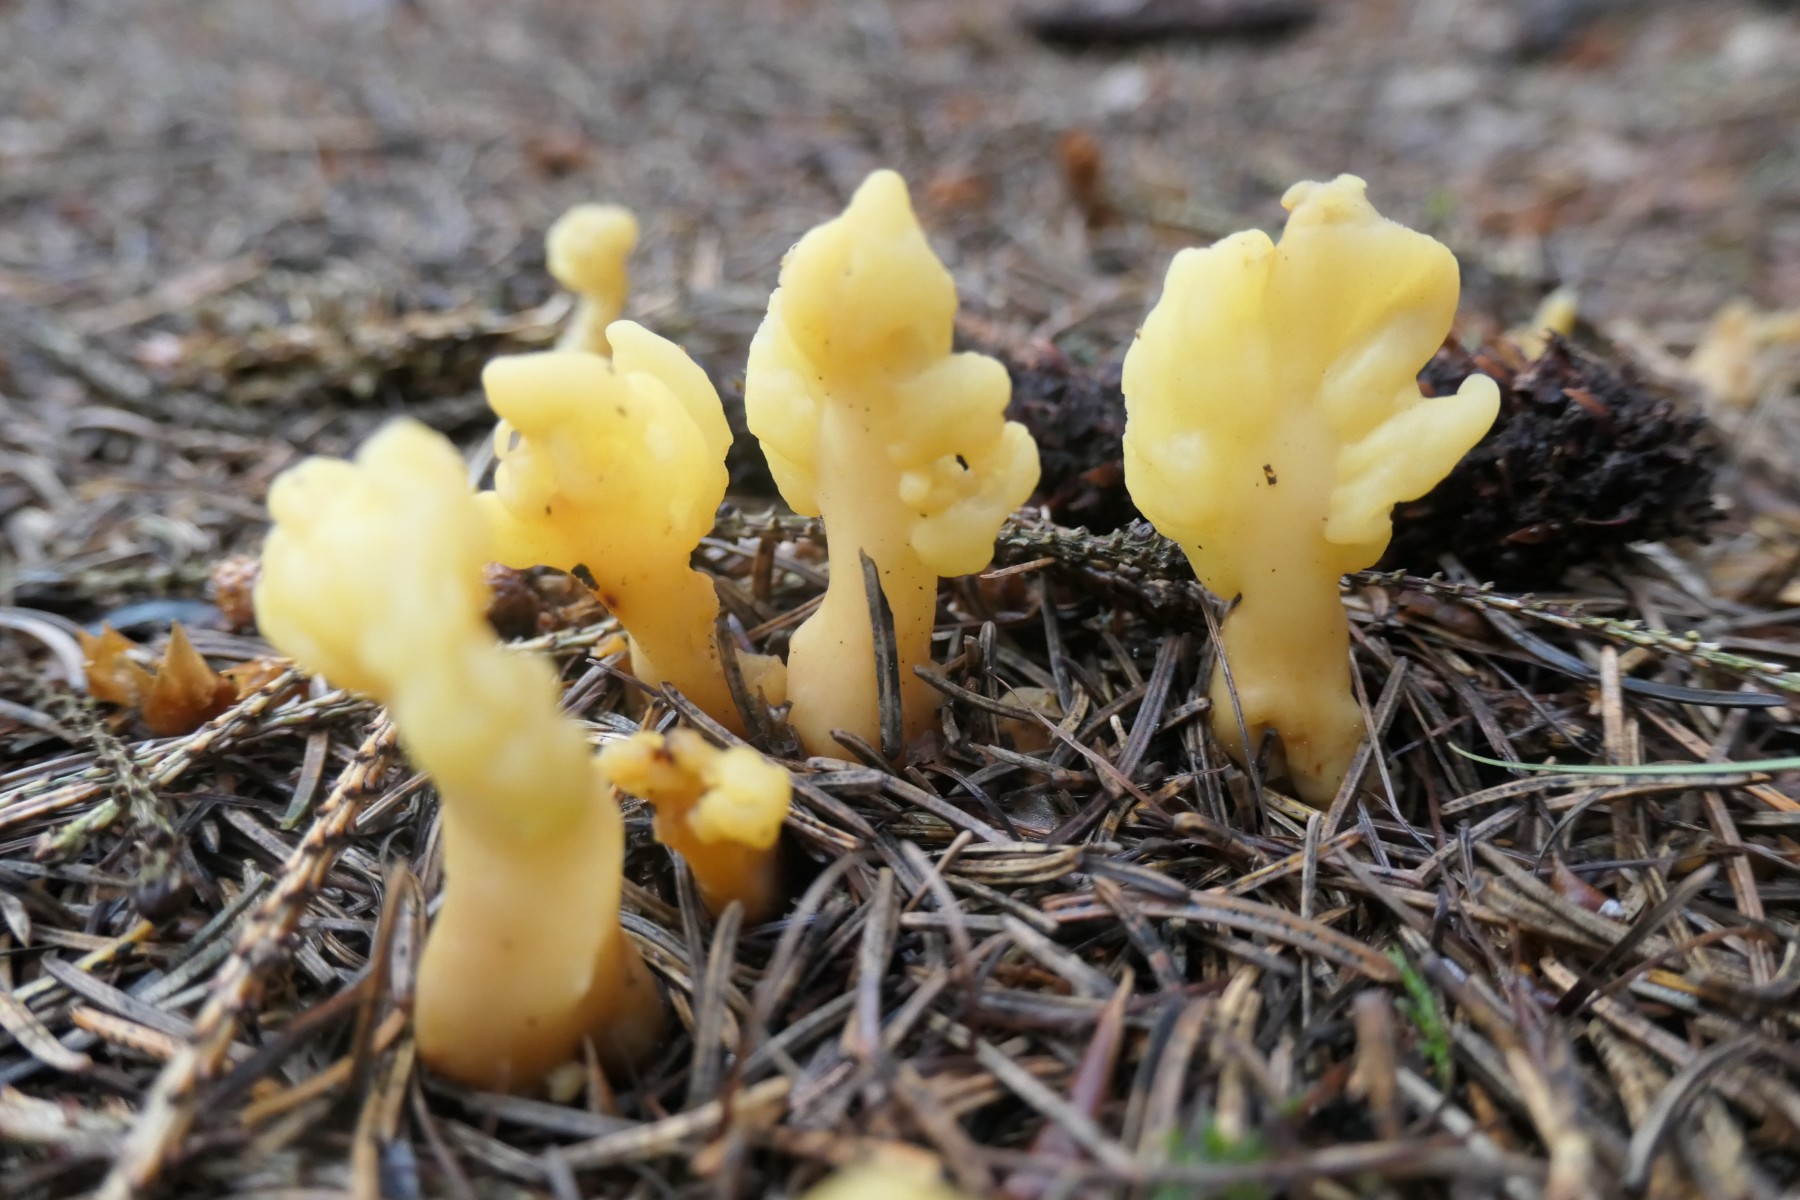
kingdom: Fungi
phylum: Ascomycota
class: Leotiomycetes
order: Rhytismatales
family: Cudoniaceae
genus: Spathularia
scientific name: Spathularia flavida
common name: gul spatelsvamp
